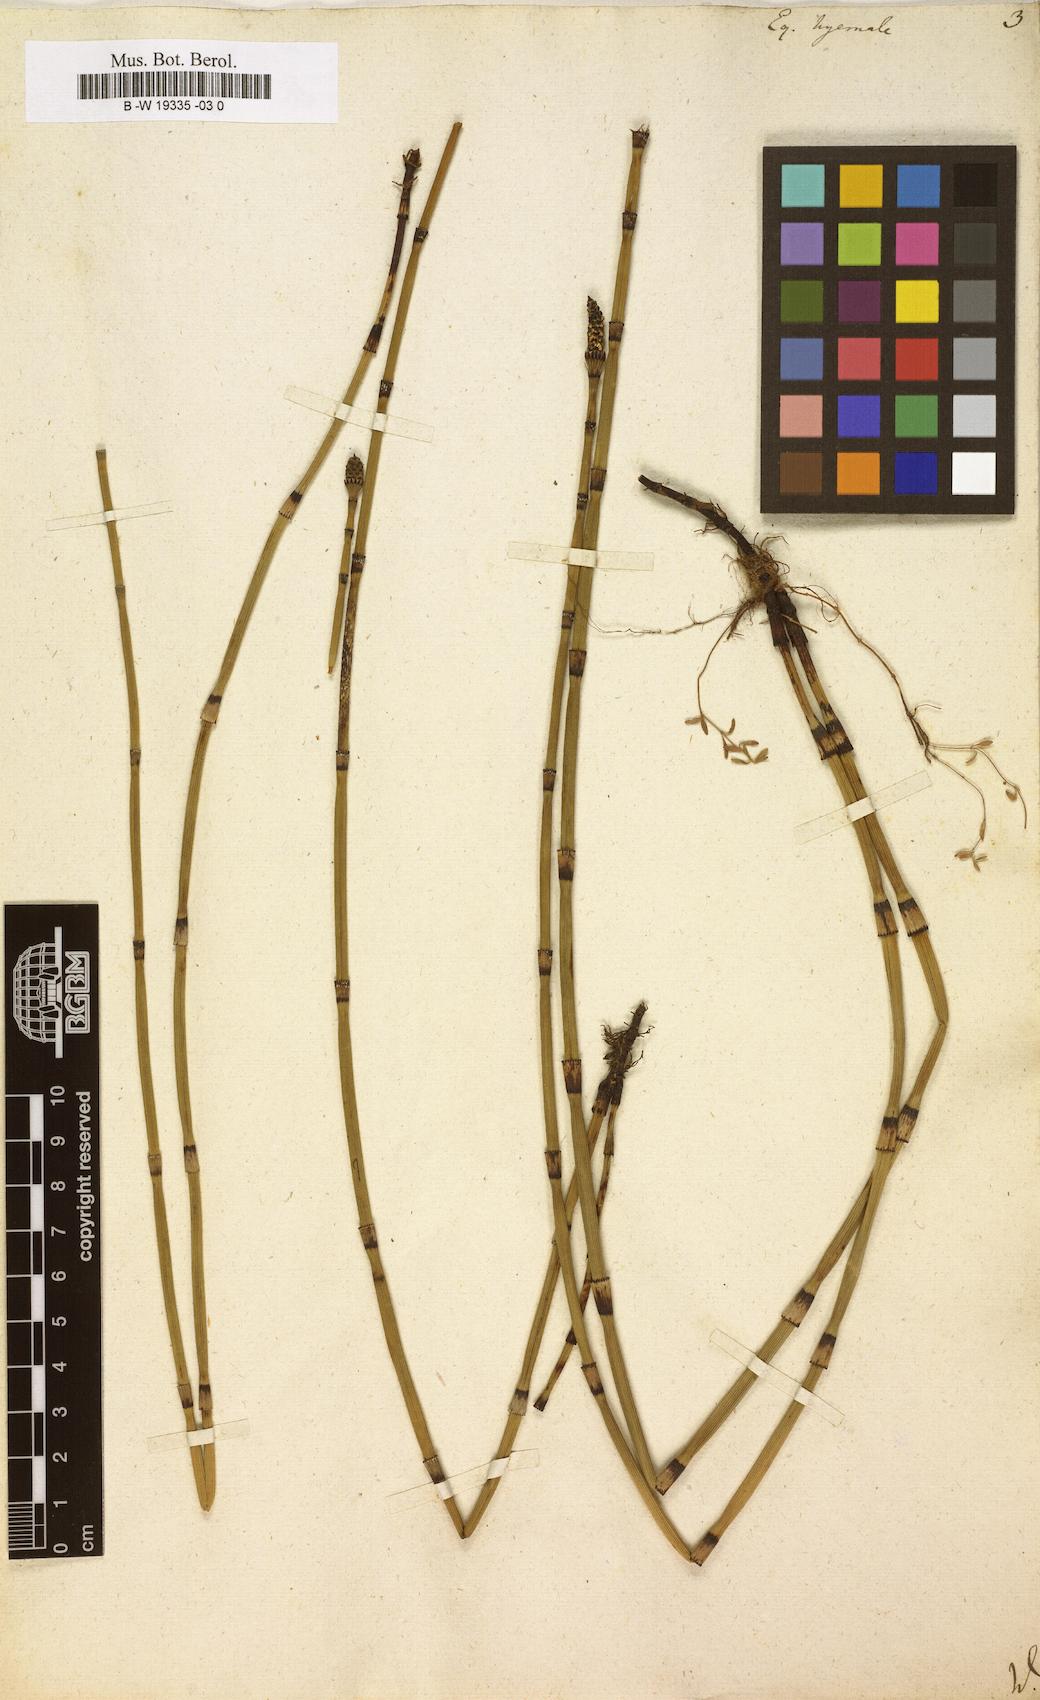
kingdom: Plantae
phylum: Tracheophyta
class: Polypodiopsida
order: Equisetales
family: Equisetaceae
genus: Equisetum
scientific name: Equisetum hyemale
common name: Rough horsetail
